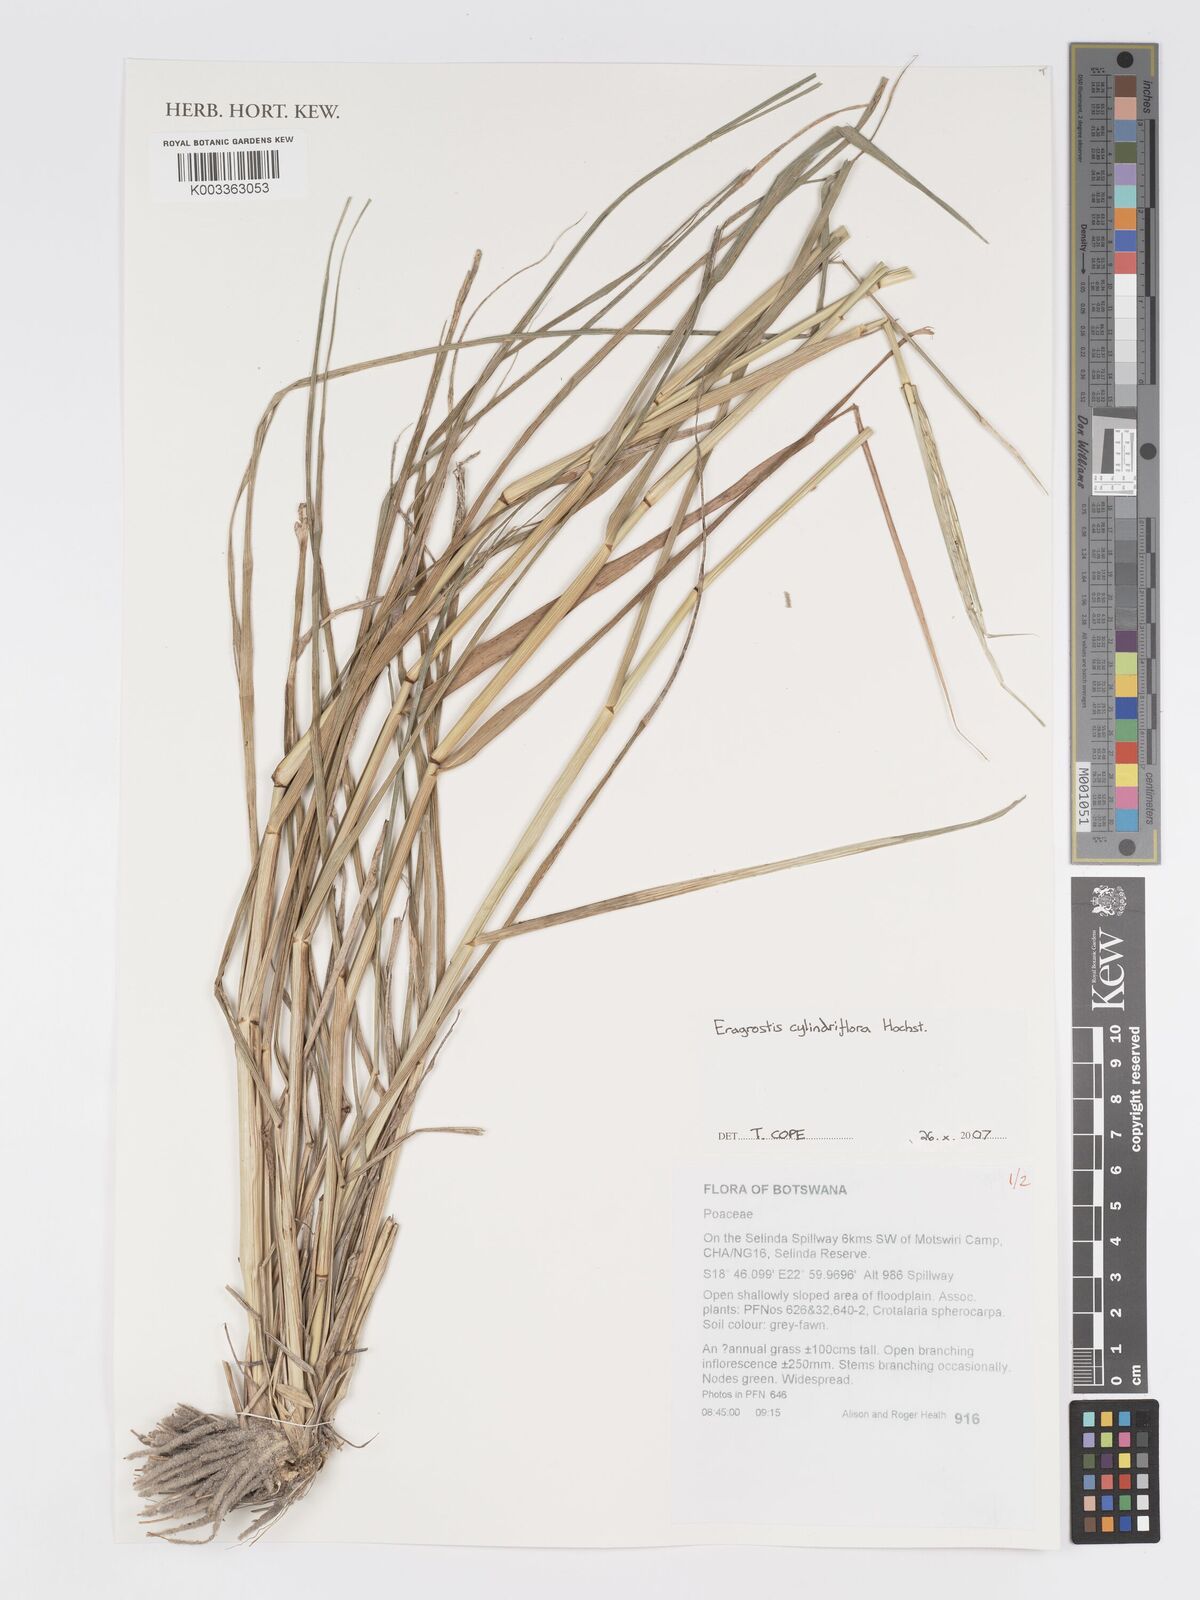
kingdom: Plantae
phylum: Tracheophyta
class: Liliopsida
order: Poales
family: Poaceae
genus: Eragrostis
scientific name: Eragrostis cylindriflora
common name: Cylinderflower lovegrass
